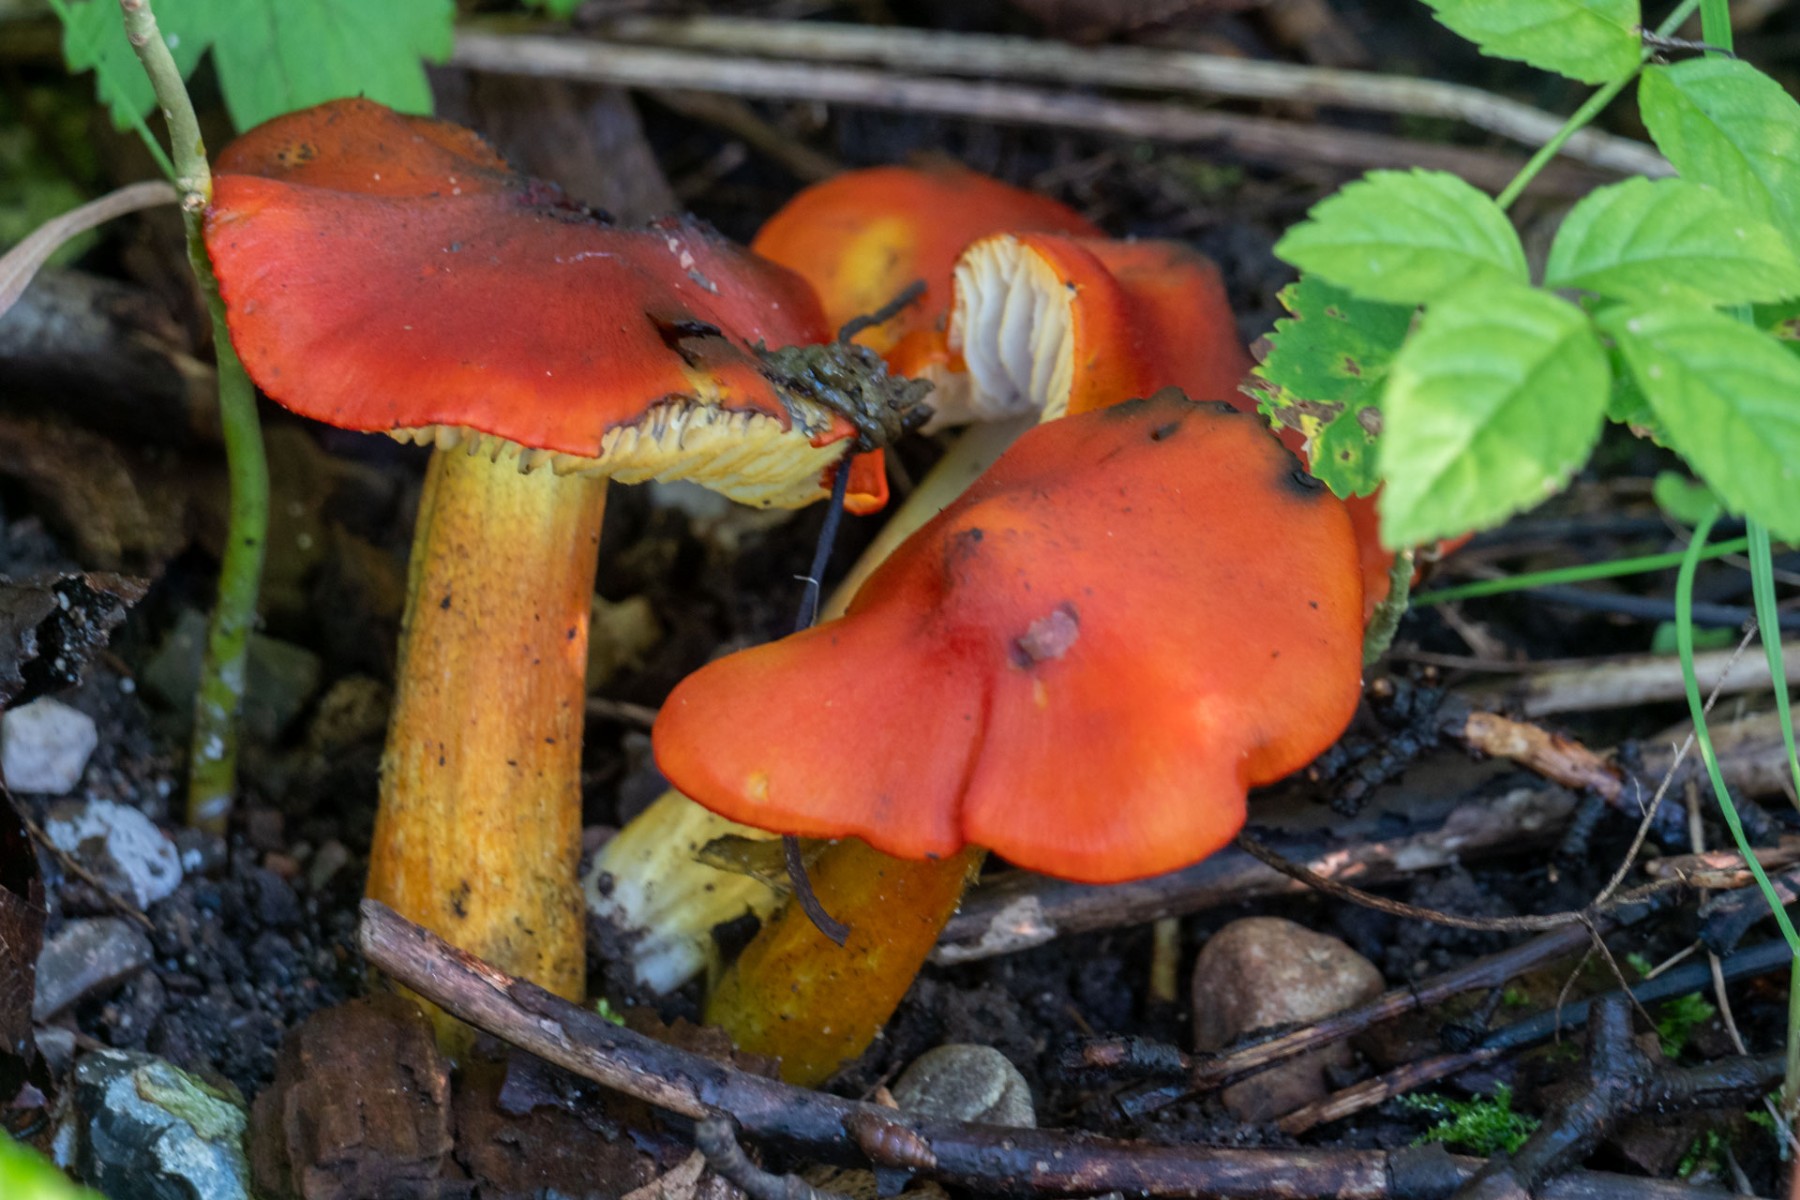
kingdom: Fungi
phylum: Basidiomycota
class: Agaricomycetes
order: Agaricales
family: Hygrophoraceae
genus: Hygrocybe
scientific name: Hygrocybe conica
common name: kegle-vokshat
